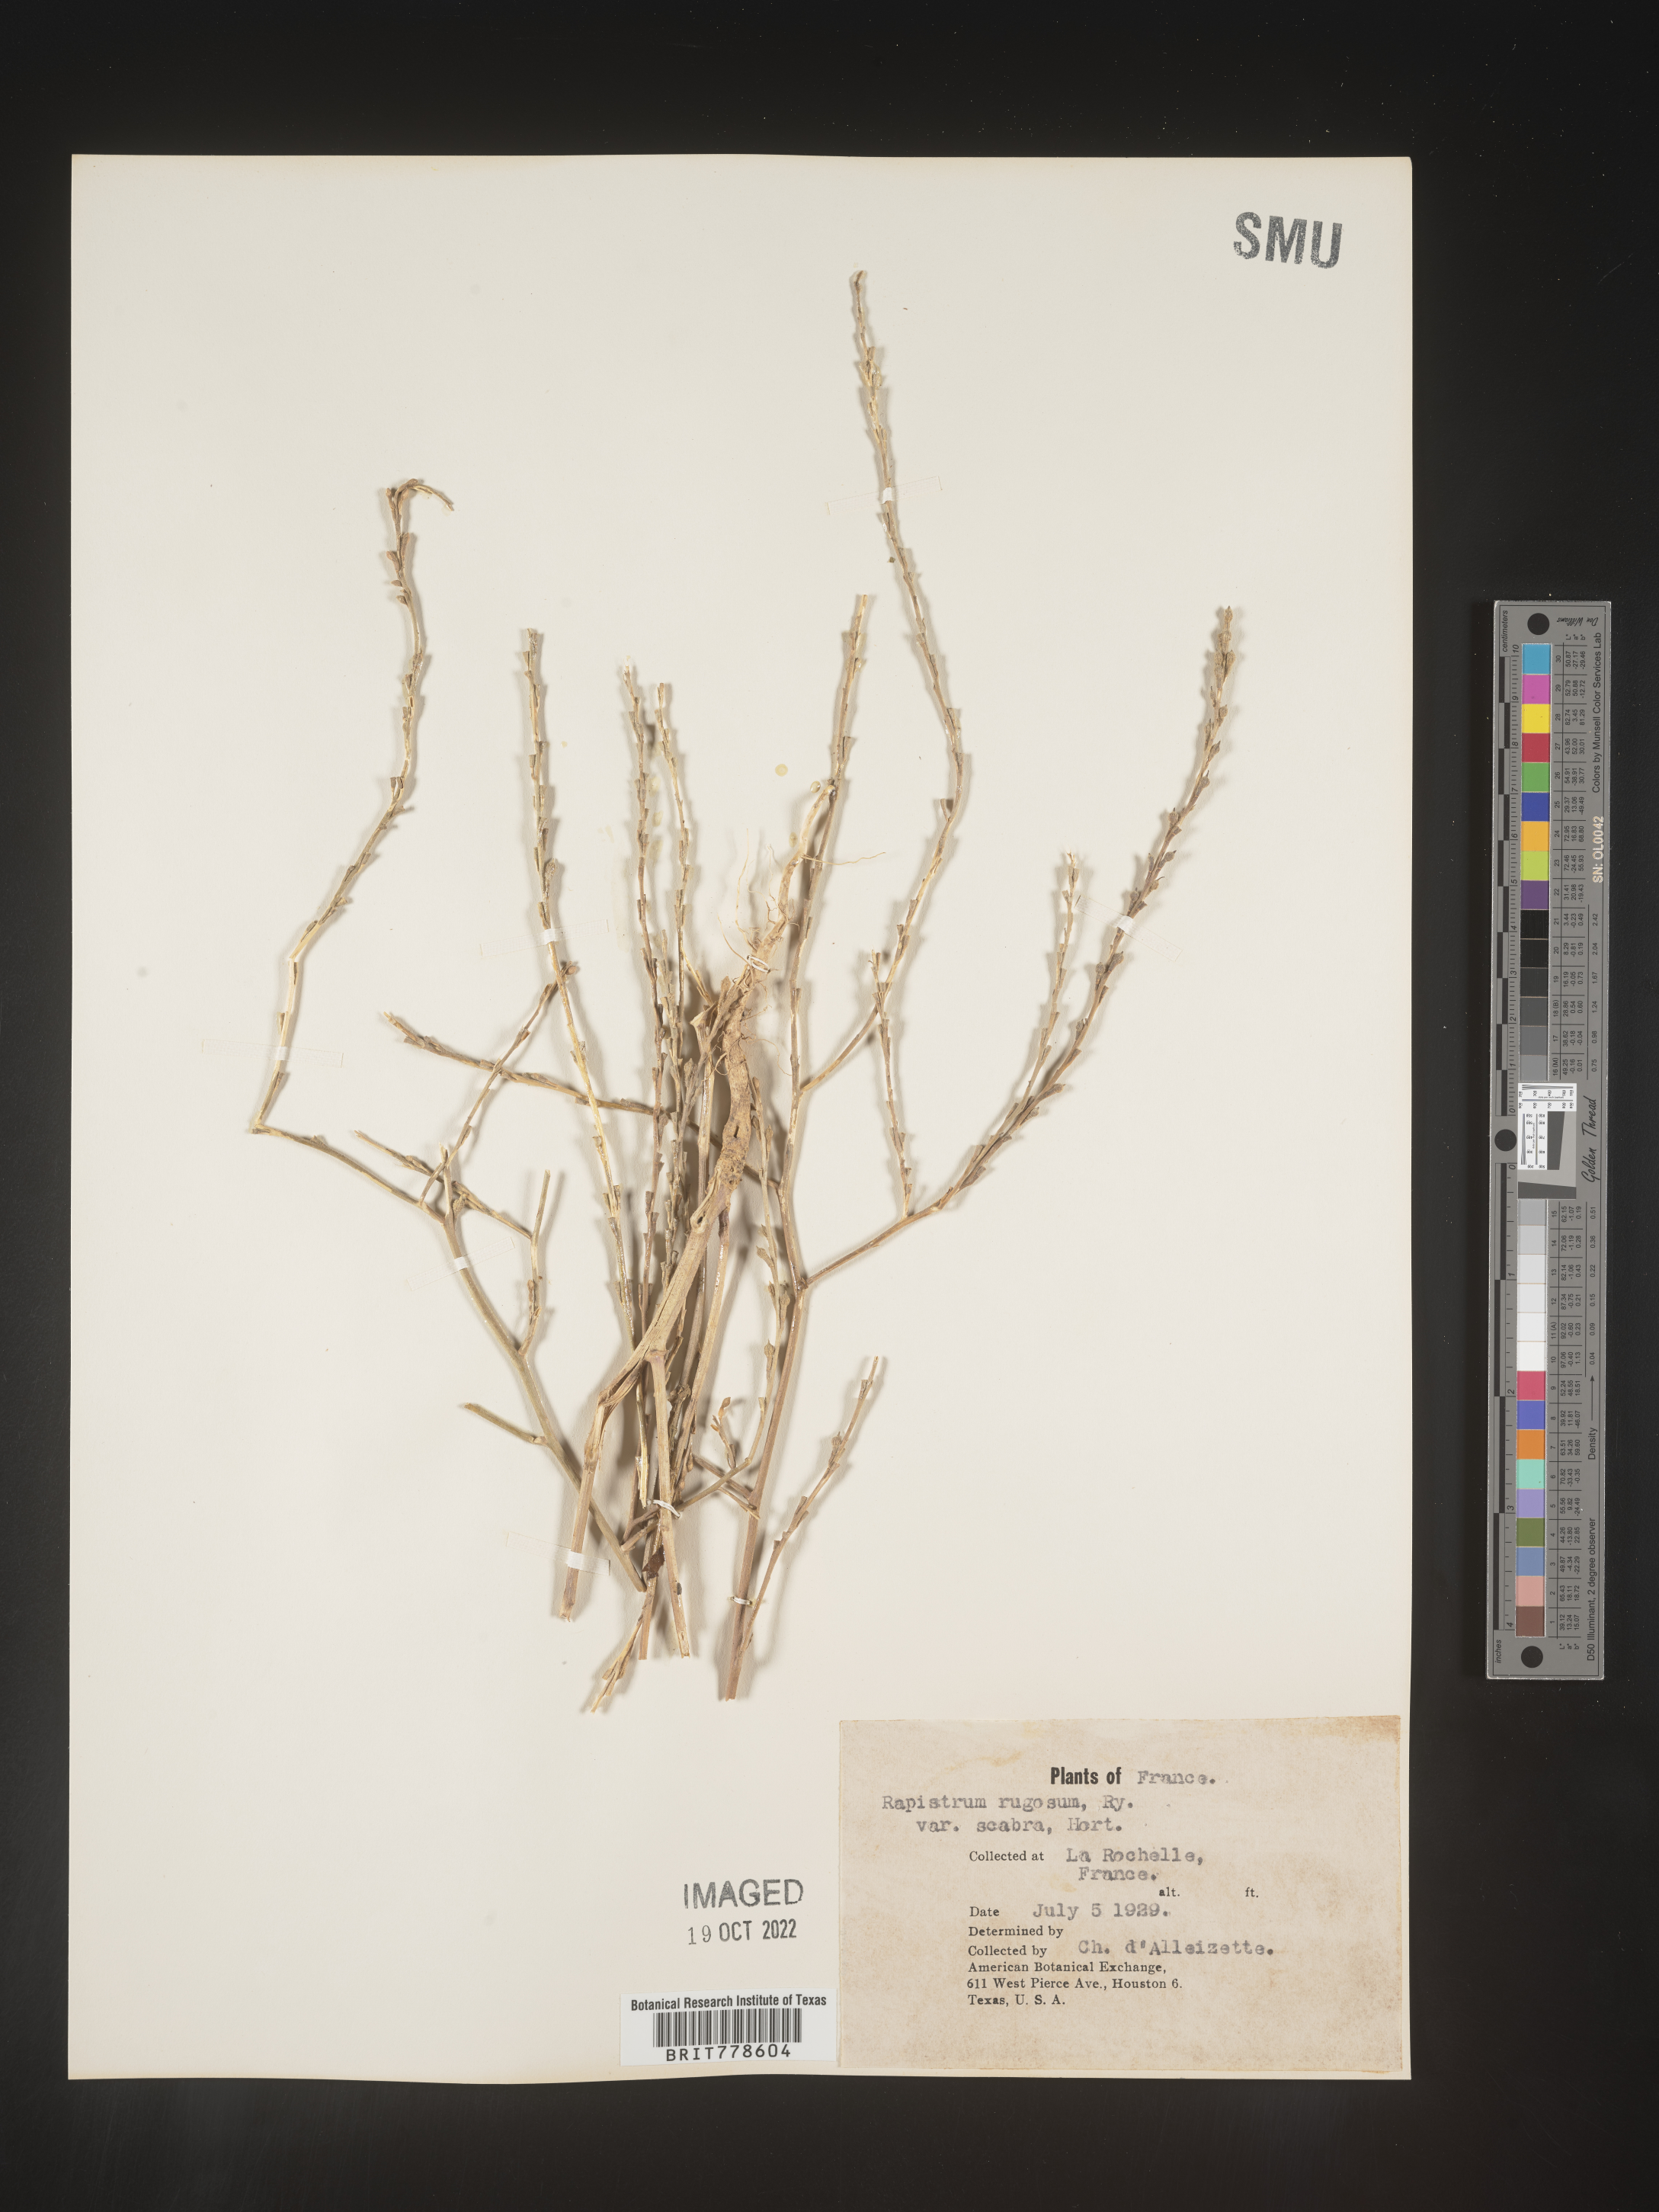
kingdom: Plantae
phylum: Tracheophyta
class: Magnoliopsida
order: Brassicales
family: Brassicaceae
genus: Rapistrum
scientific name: Rapistrum
